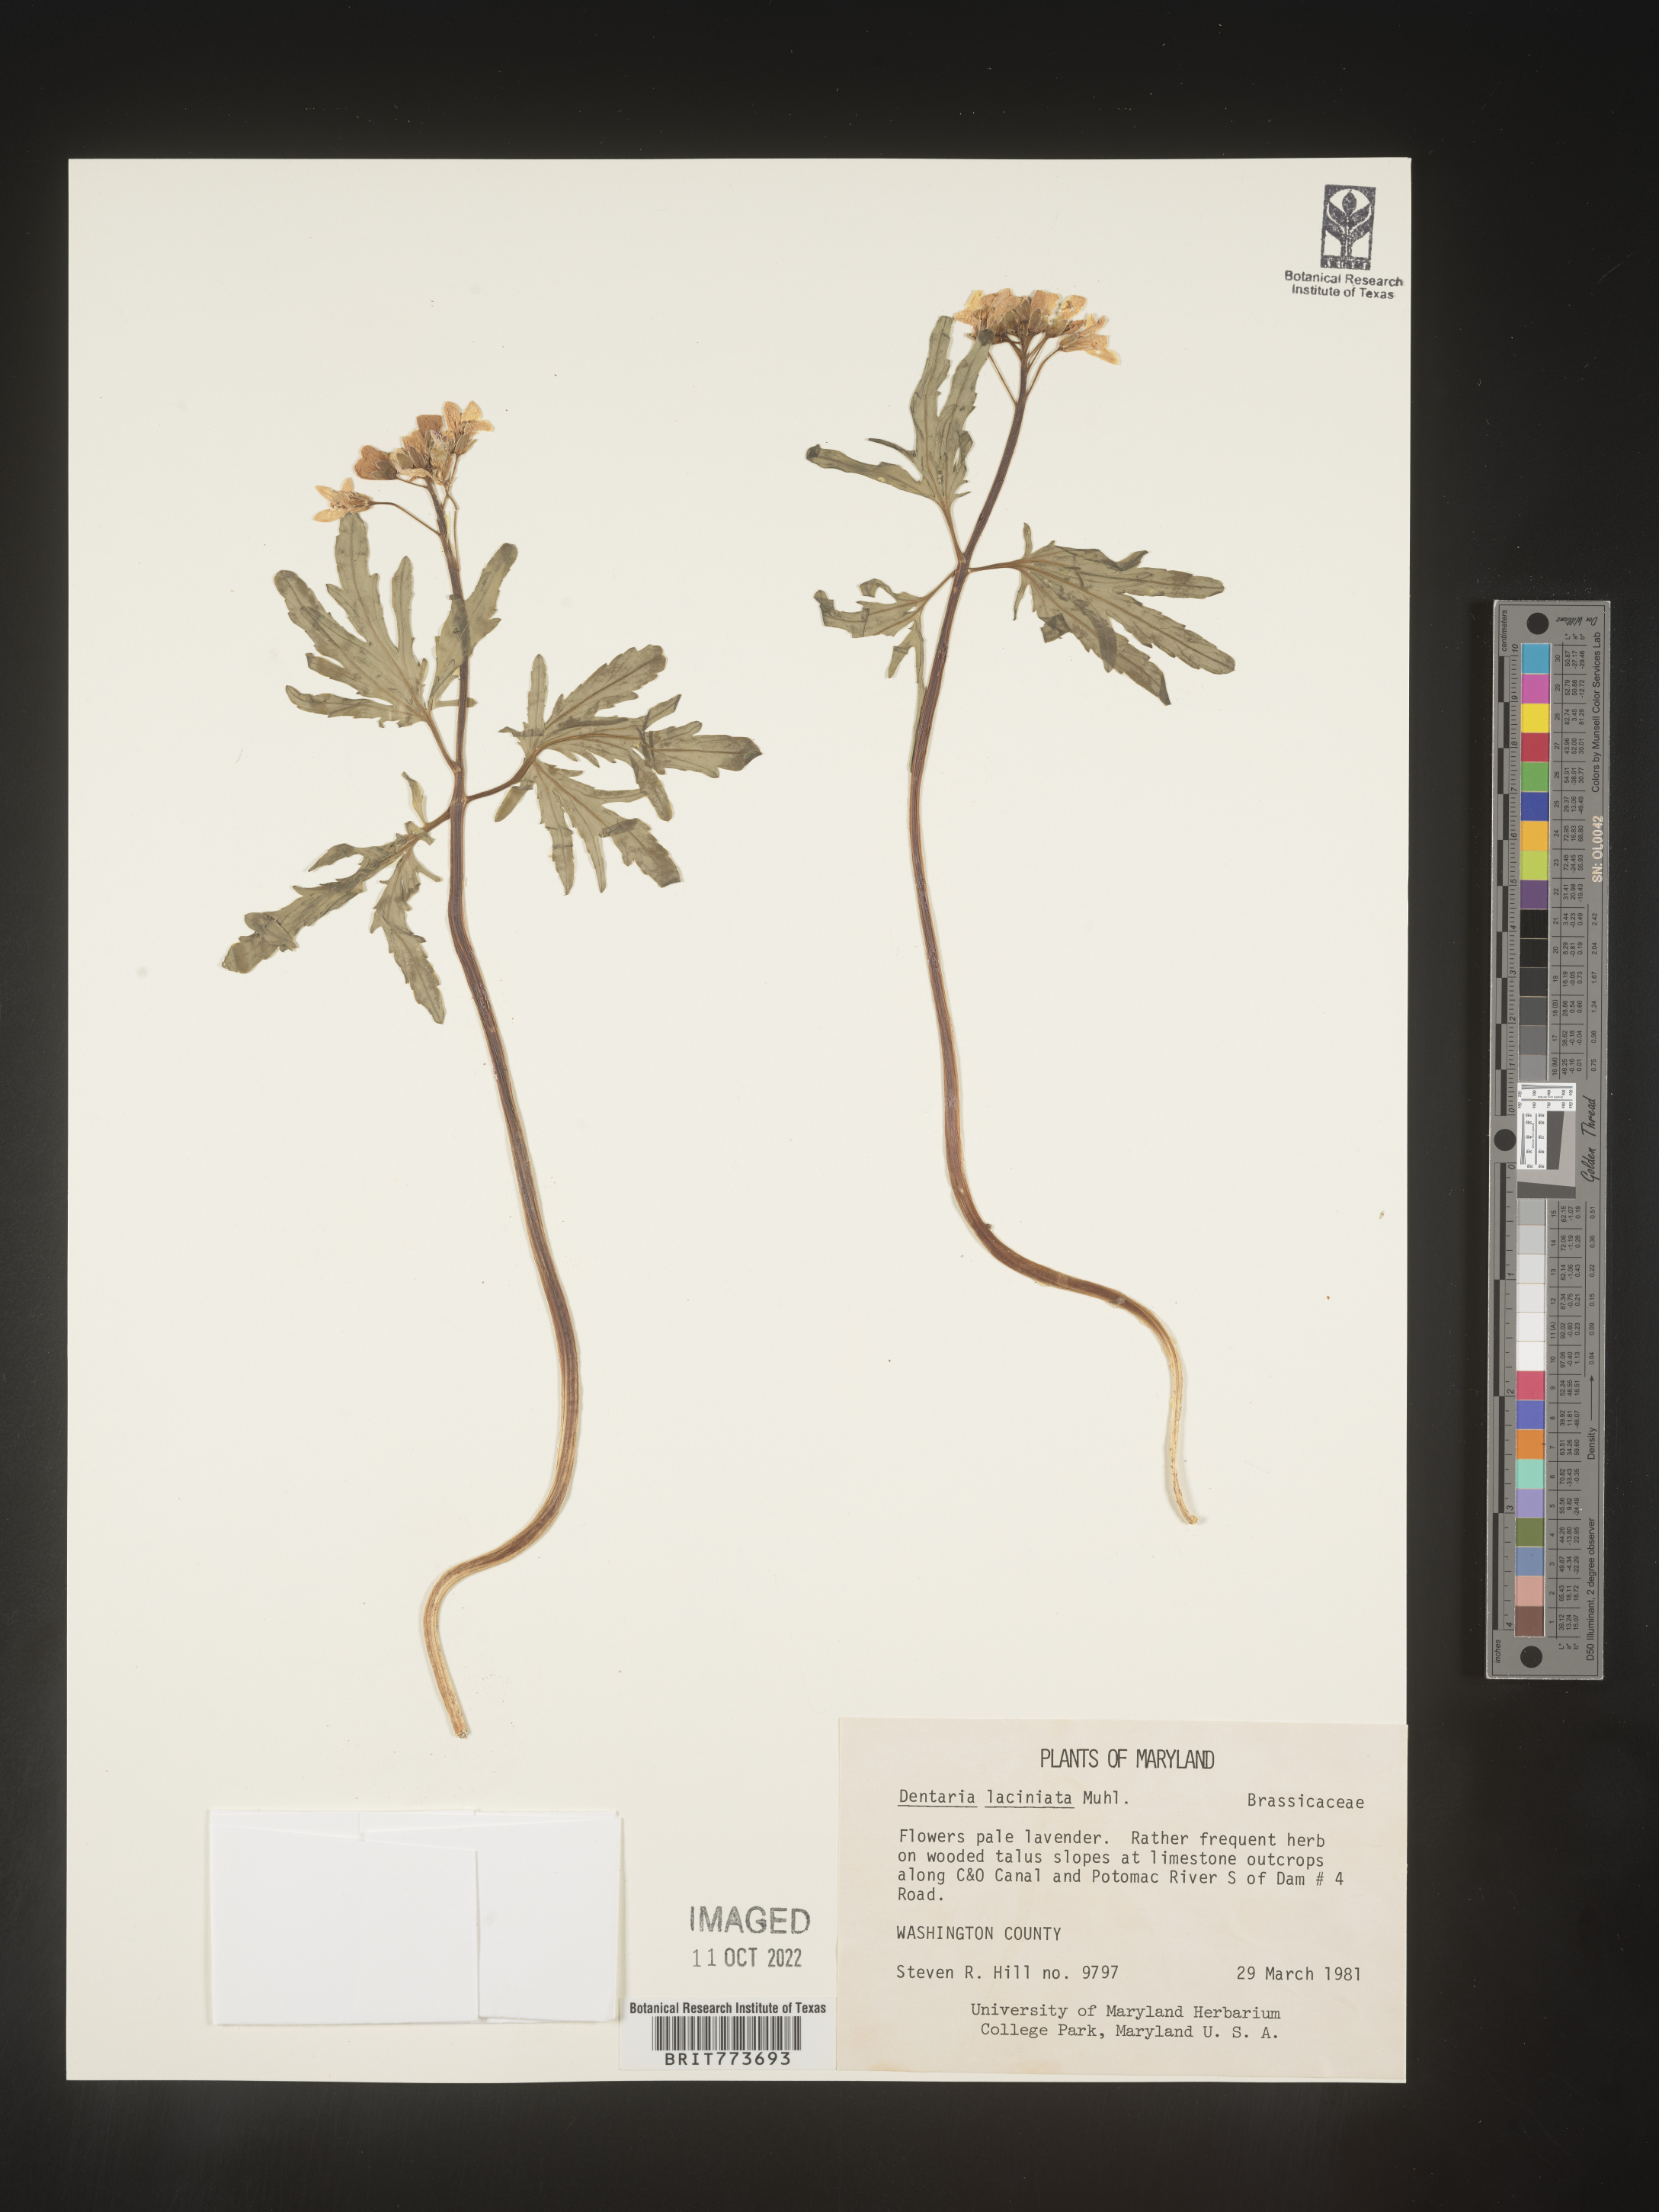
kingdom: Plantae
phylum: Tracheophyta
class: Magnoliopsida
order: Brassicales
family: Brassicaceae
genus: Rorippa
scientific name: Rorippa laciniata
